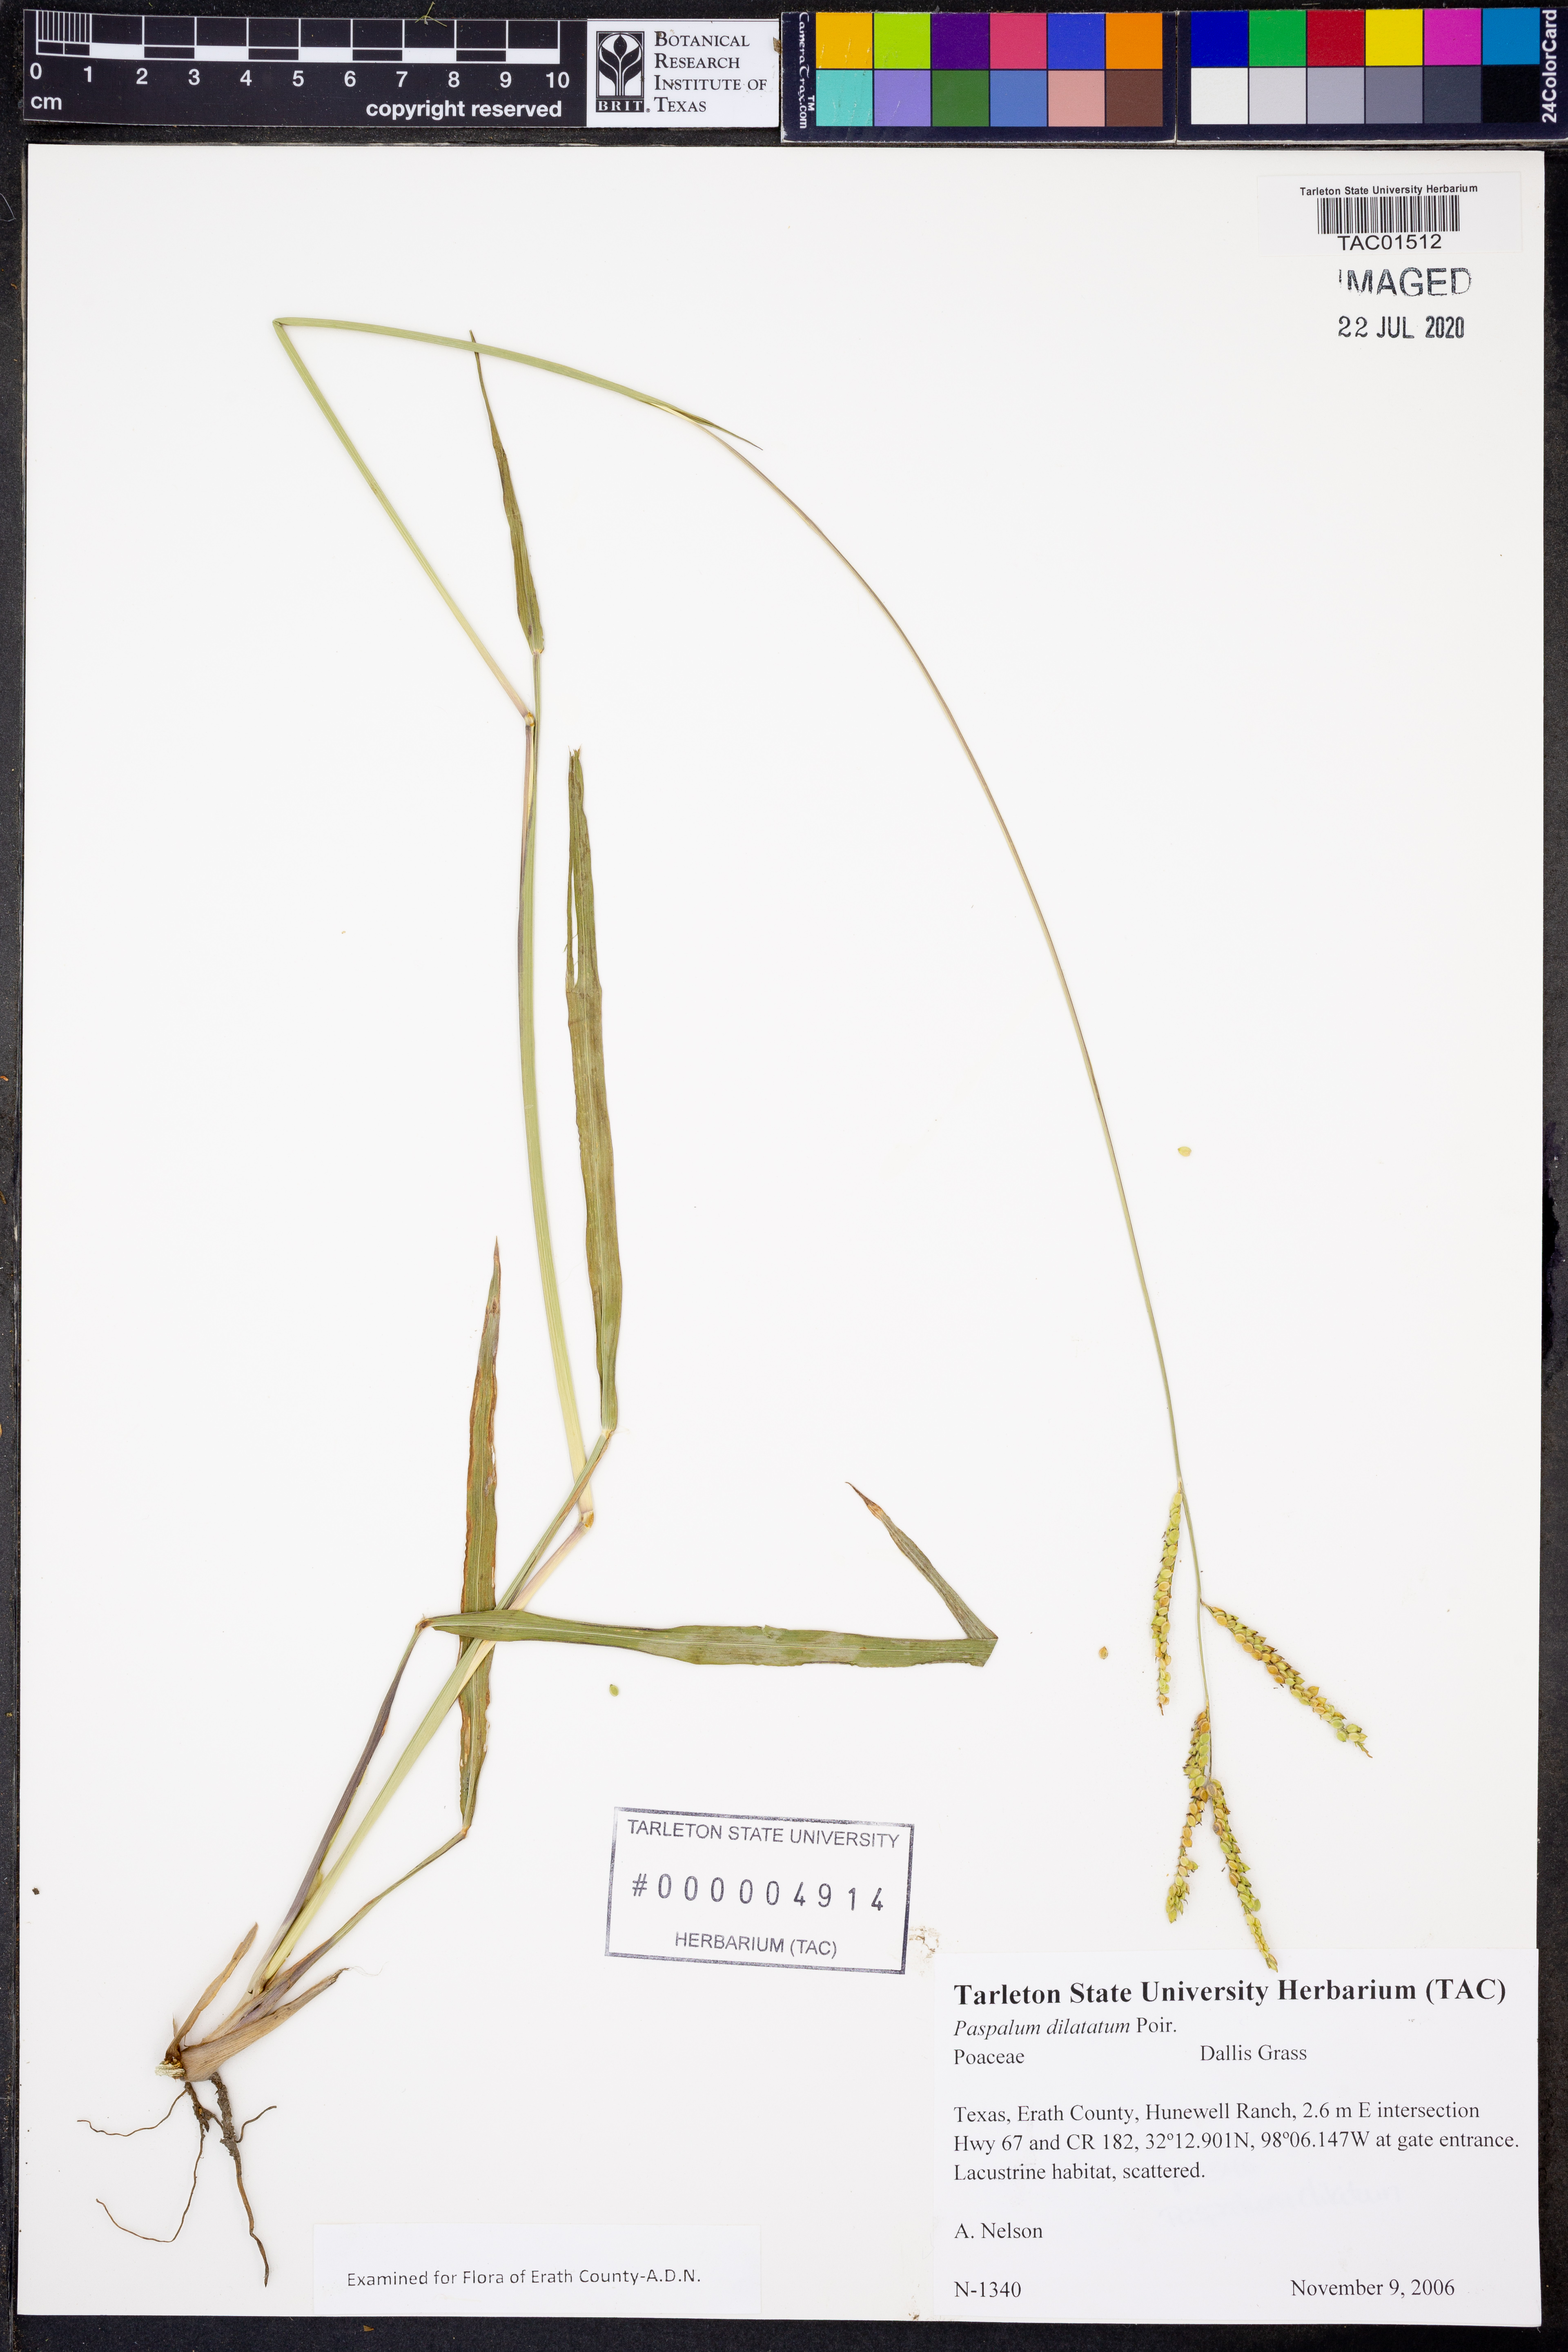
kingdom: Plantae
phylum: Tracheophyta
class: Liliopsida
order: Poales
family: Poaceae
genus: Paspalum
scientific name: Paspalum dilatatum
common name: Dallisgrass
